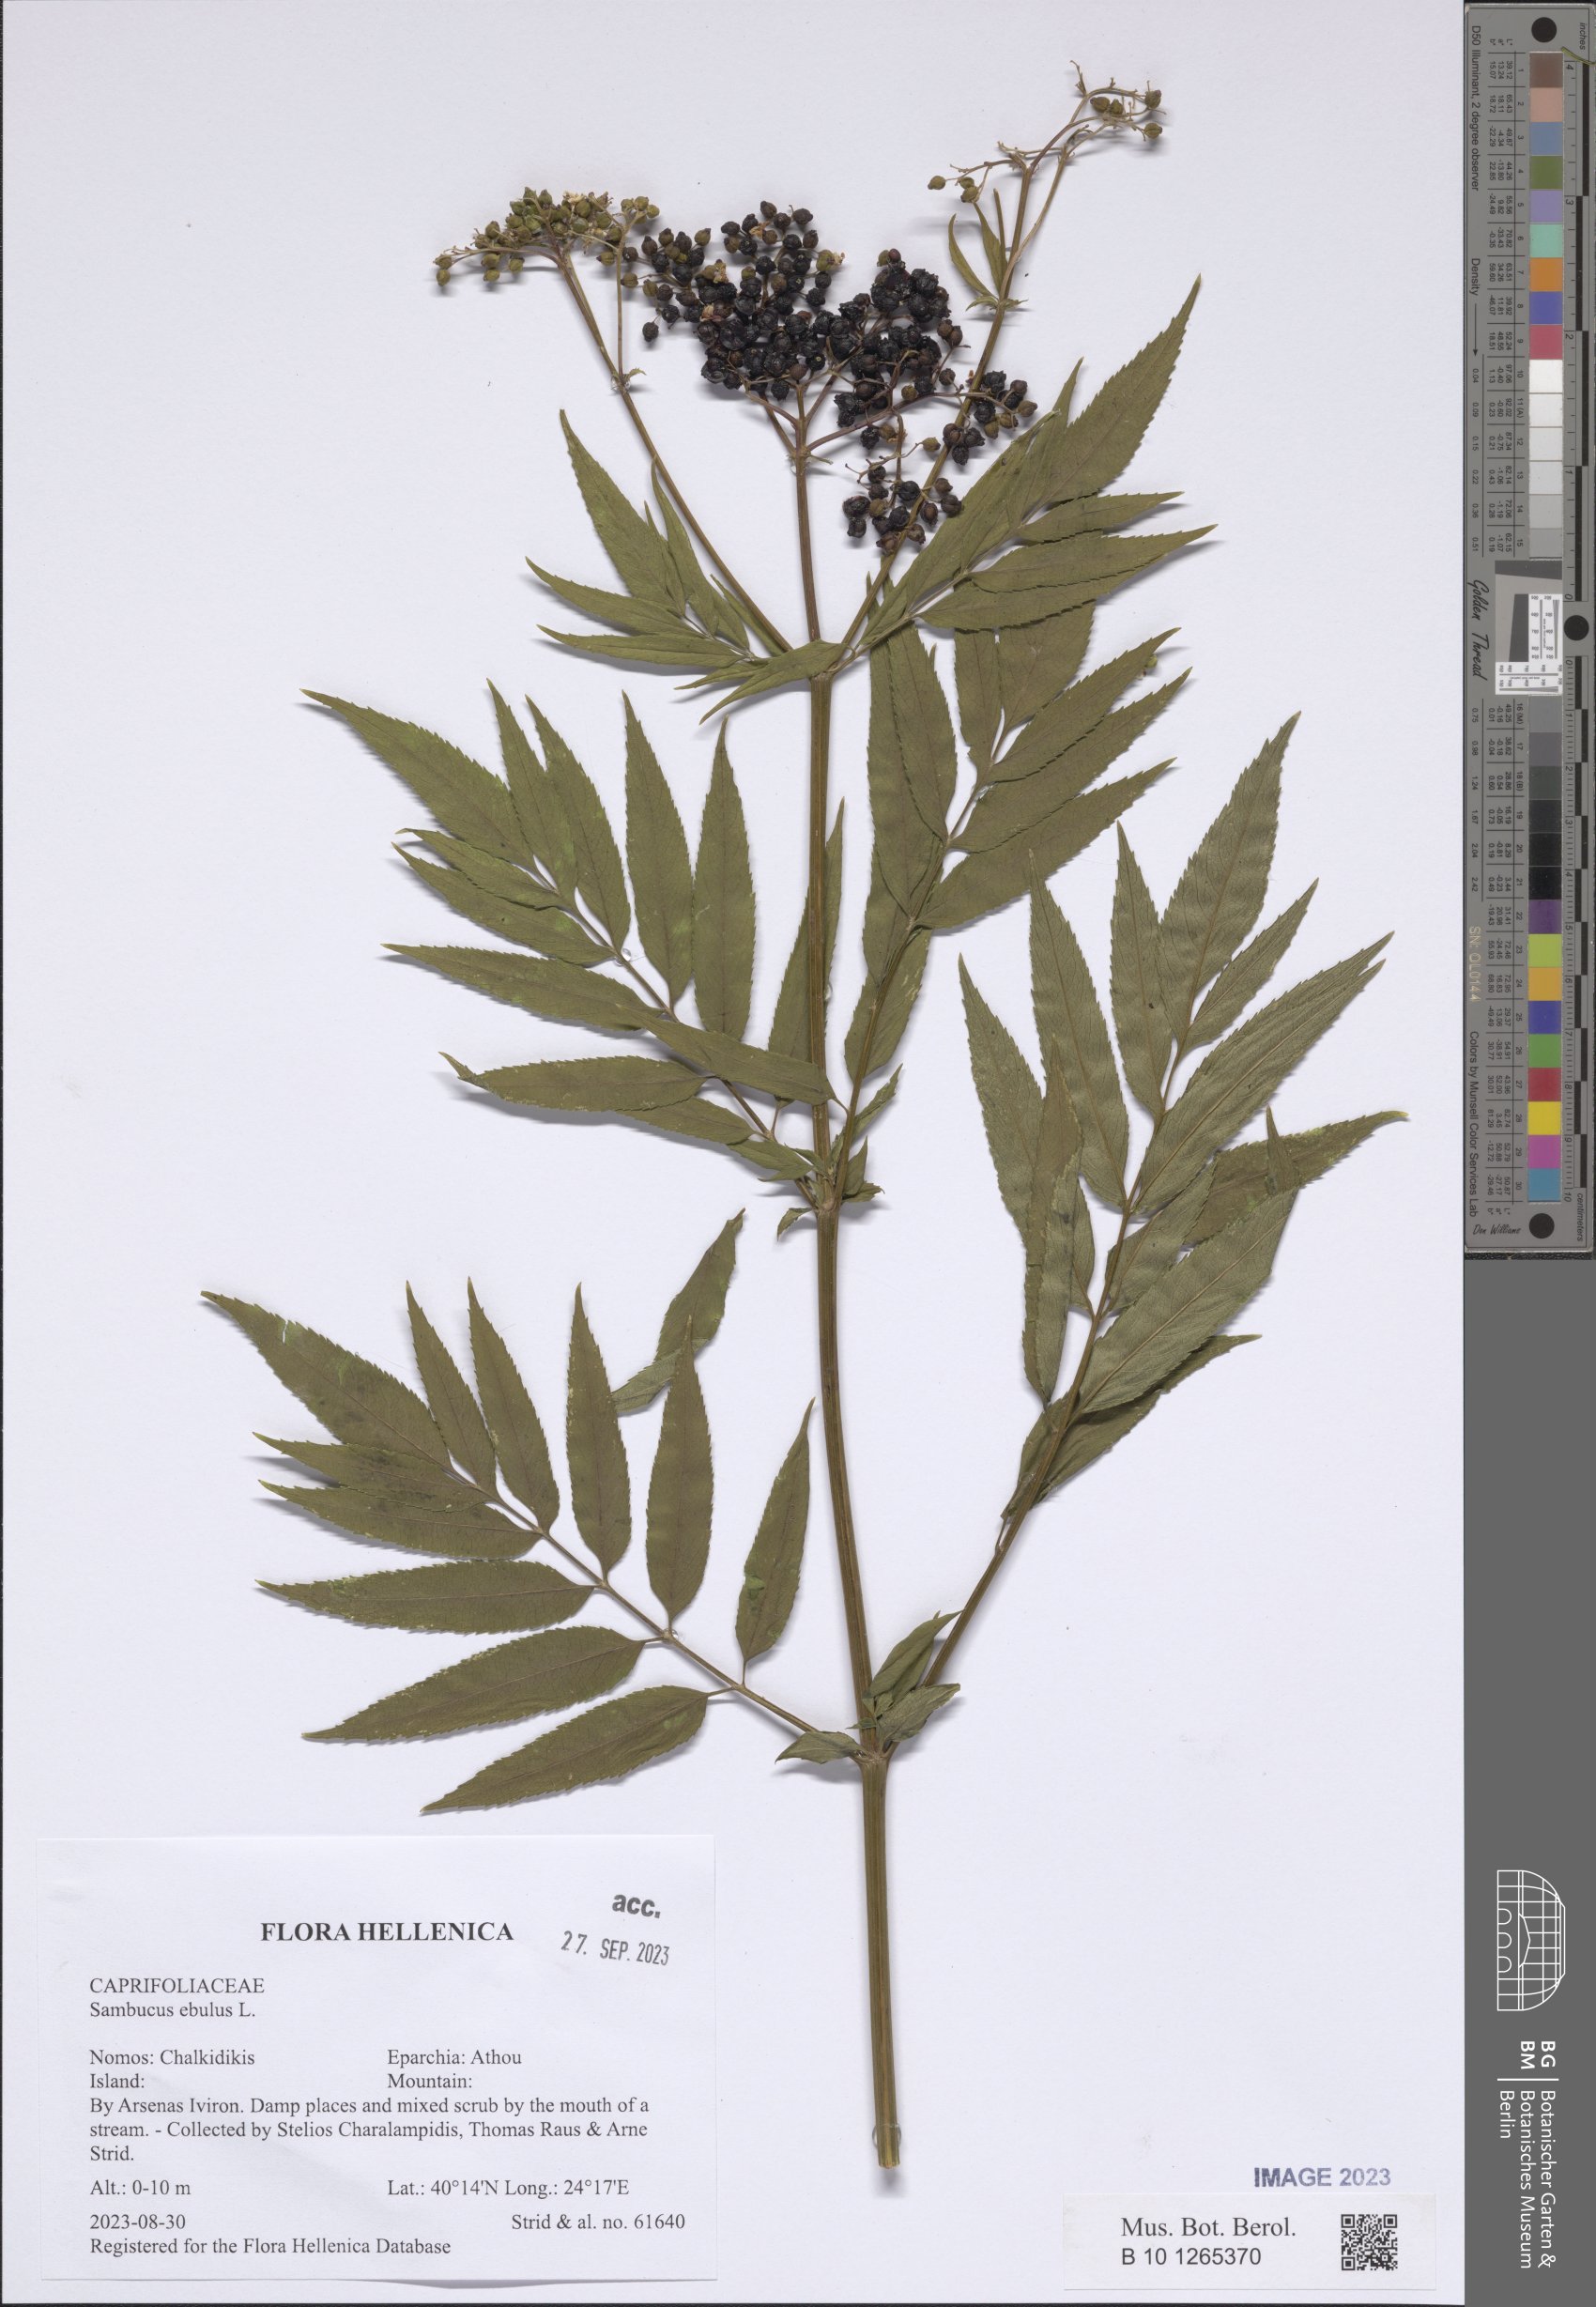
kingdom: Plantae
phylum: Tracheophyta
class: Magnoliopsida
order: Dipsacales
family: Viburnaceae
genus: Sambucus
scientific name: Sambucus ebulus
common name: Dwarf elder
